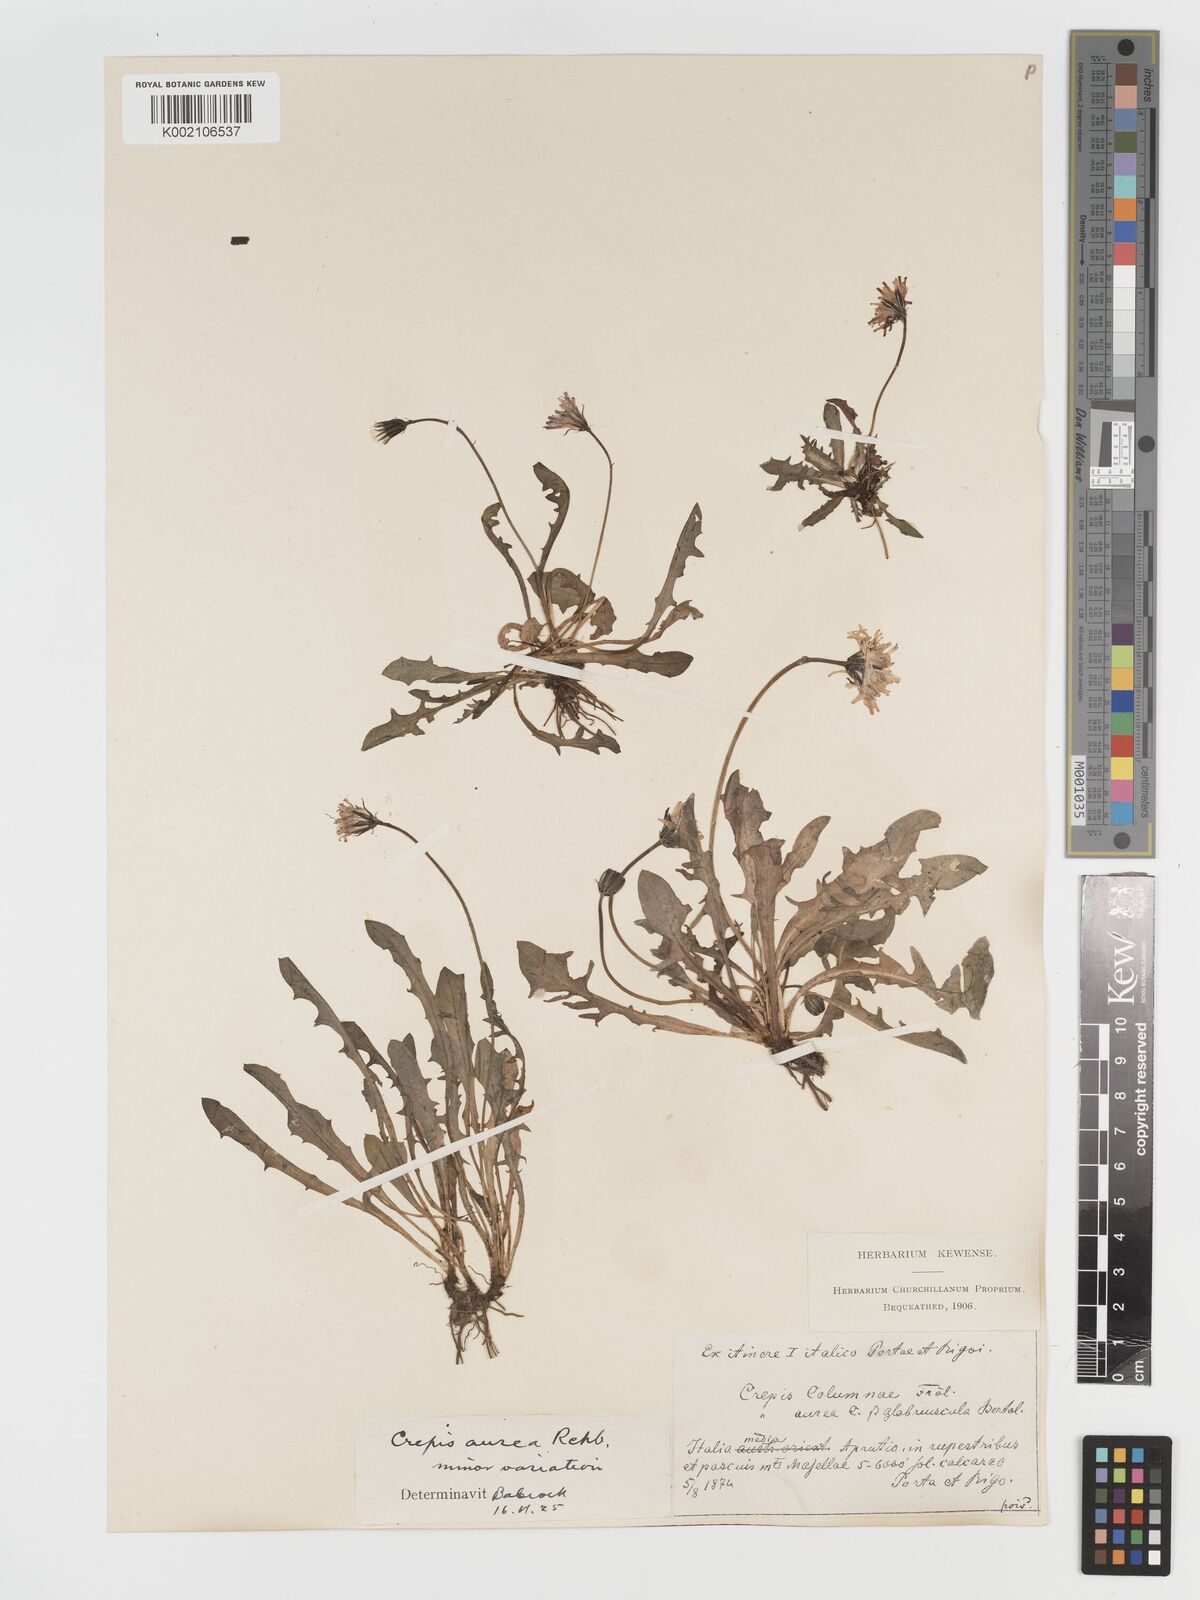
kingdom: Plantae
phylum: Tracheophyta
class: Magnoliopsida
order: Asterales
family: Asteraceae
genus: Crepis
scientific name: Crepis aurea
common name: Golden hawk's-beard
